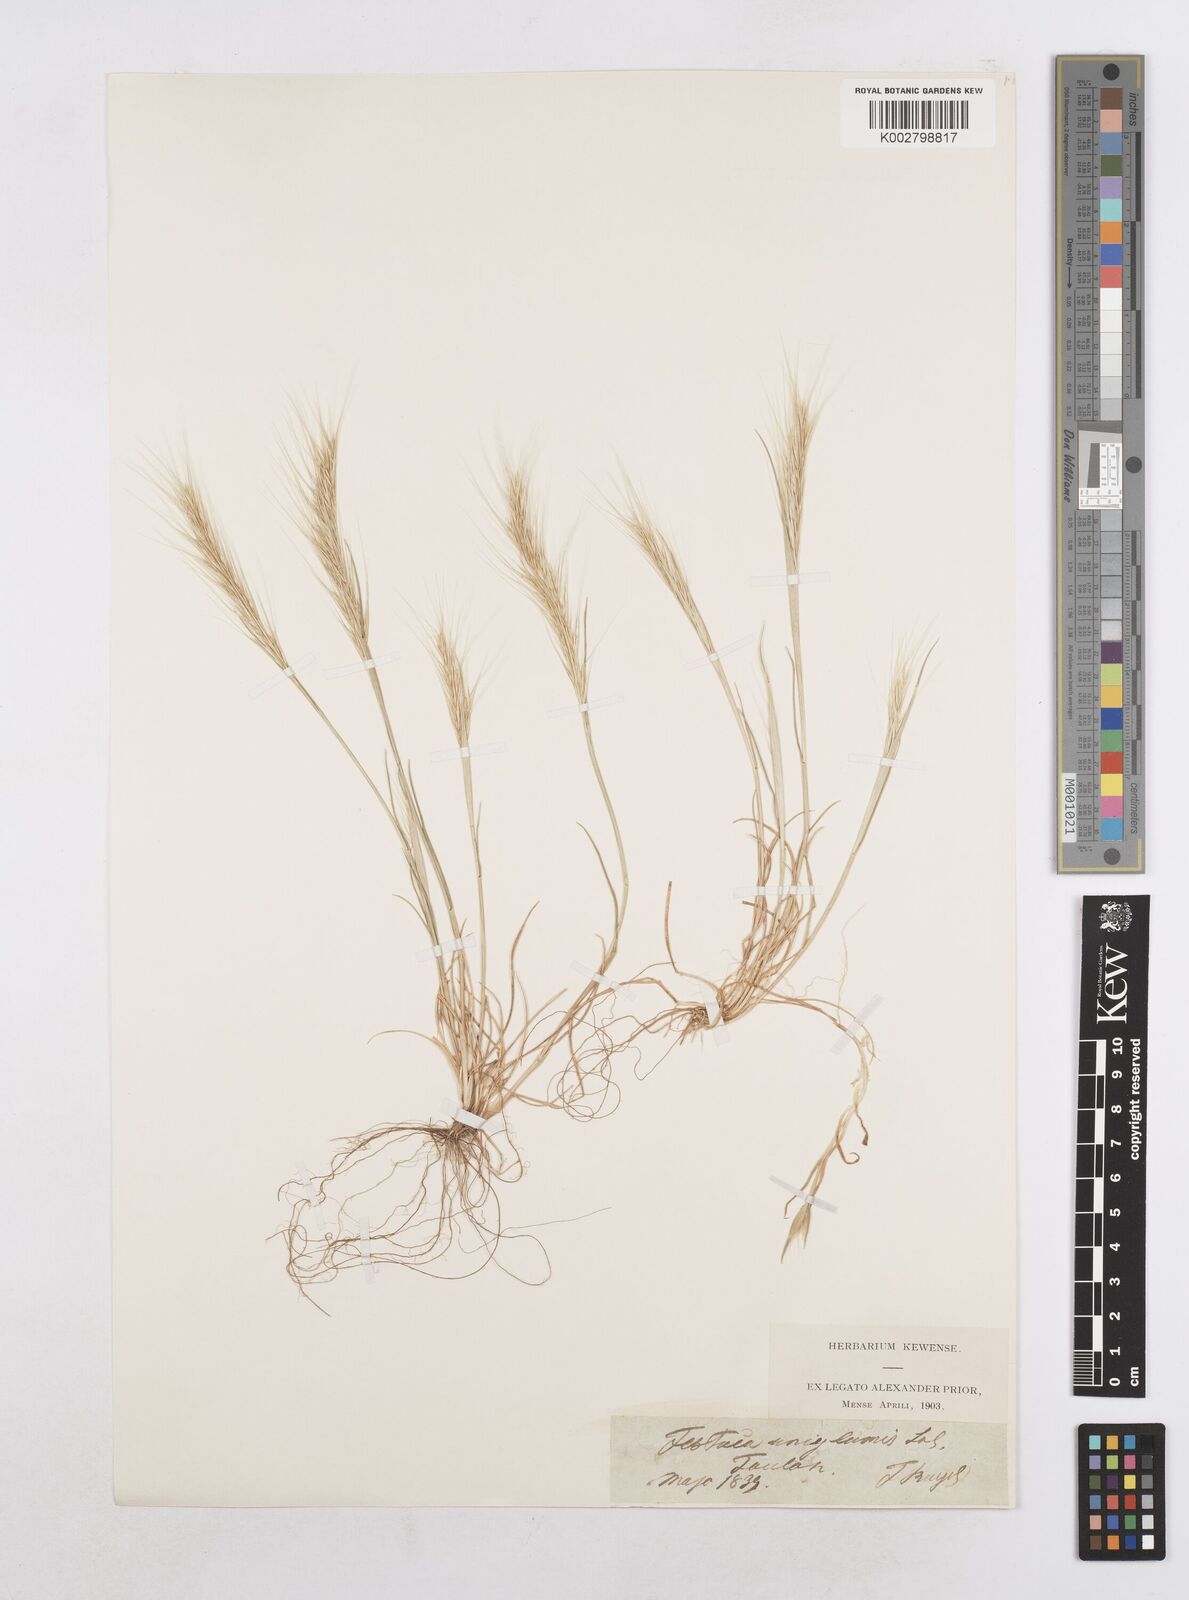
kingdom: Plantae
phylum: Tracheophyta
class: Liliopsida
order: Poales
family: Poaceae
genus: Festuca
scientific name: Festuca membranacea
